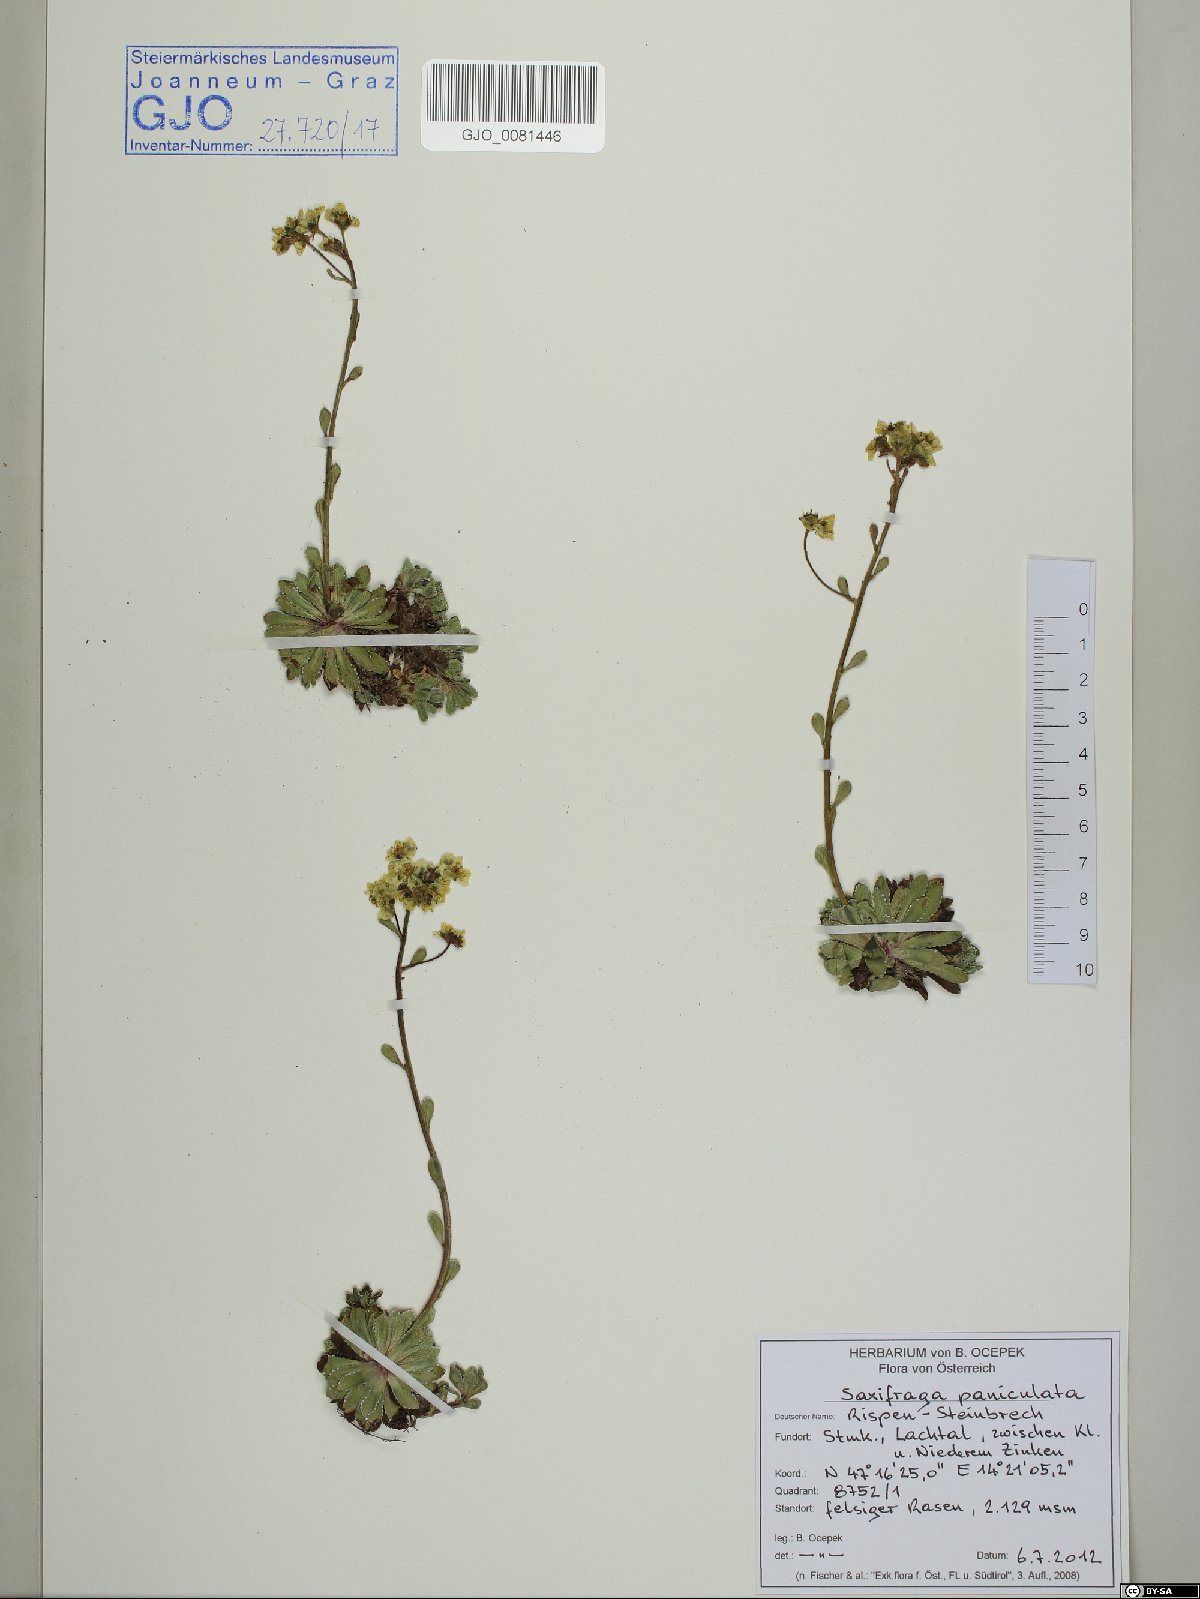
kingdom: Plantae
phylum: Tracheophyta
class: Magnoliopsida
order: Saxifragales
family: Saxifragaceae
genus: Saxifraga
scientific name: Saxifraga paniculata
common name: Livelong saxifrage
